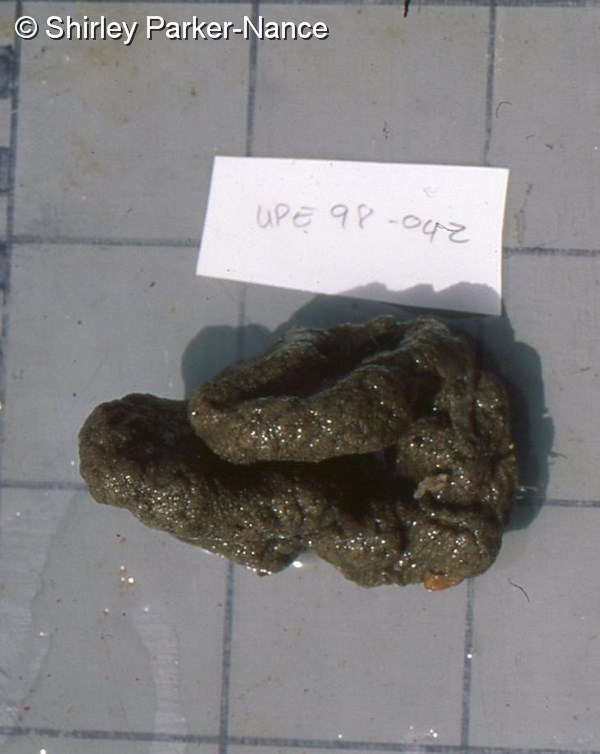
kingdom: Animalia
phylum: Chordata
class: Ascidiacea
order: Aplousobranchia
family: Polyclinidae
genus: Aplidium
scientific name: Aplidium
